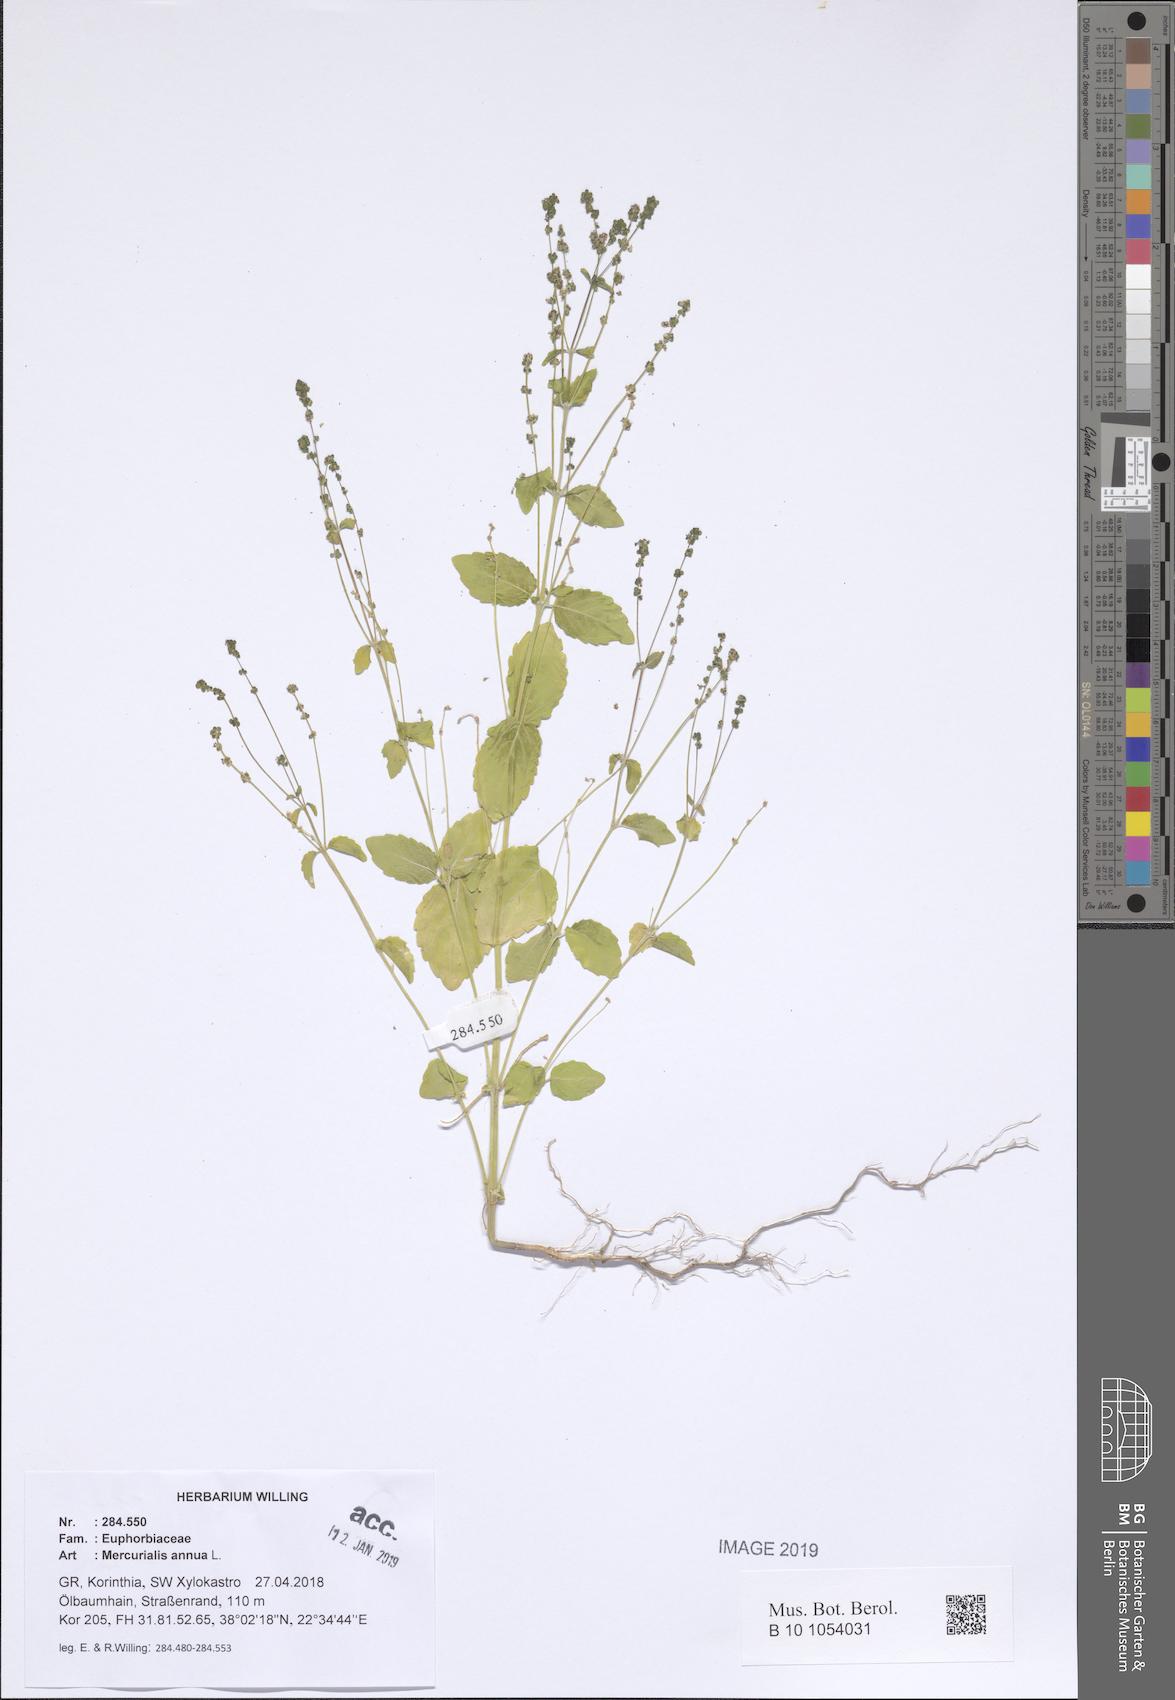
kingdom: Plantae
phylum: Tracheophyta
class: Magnoliopsida
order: Malpighiales
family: Euphorbiaceae
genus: Mercurialis
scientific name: Mercurialis annua
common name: Annual mercury
